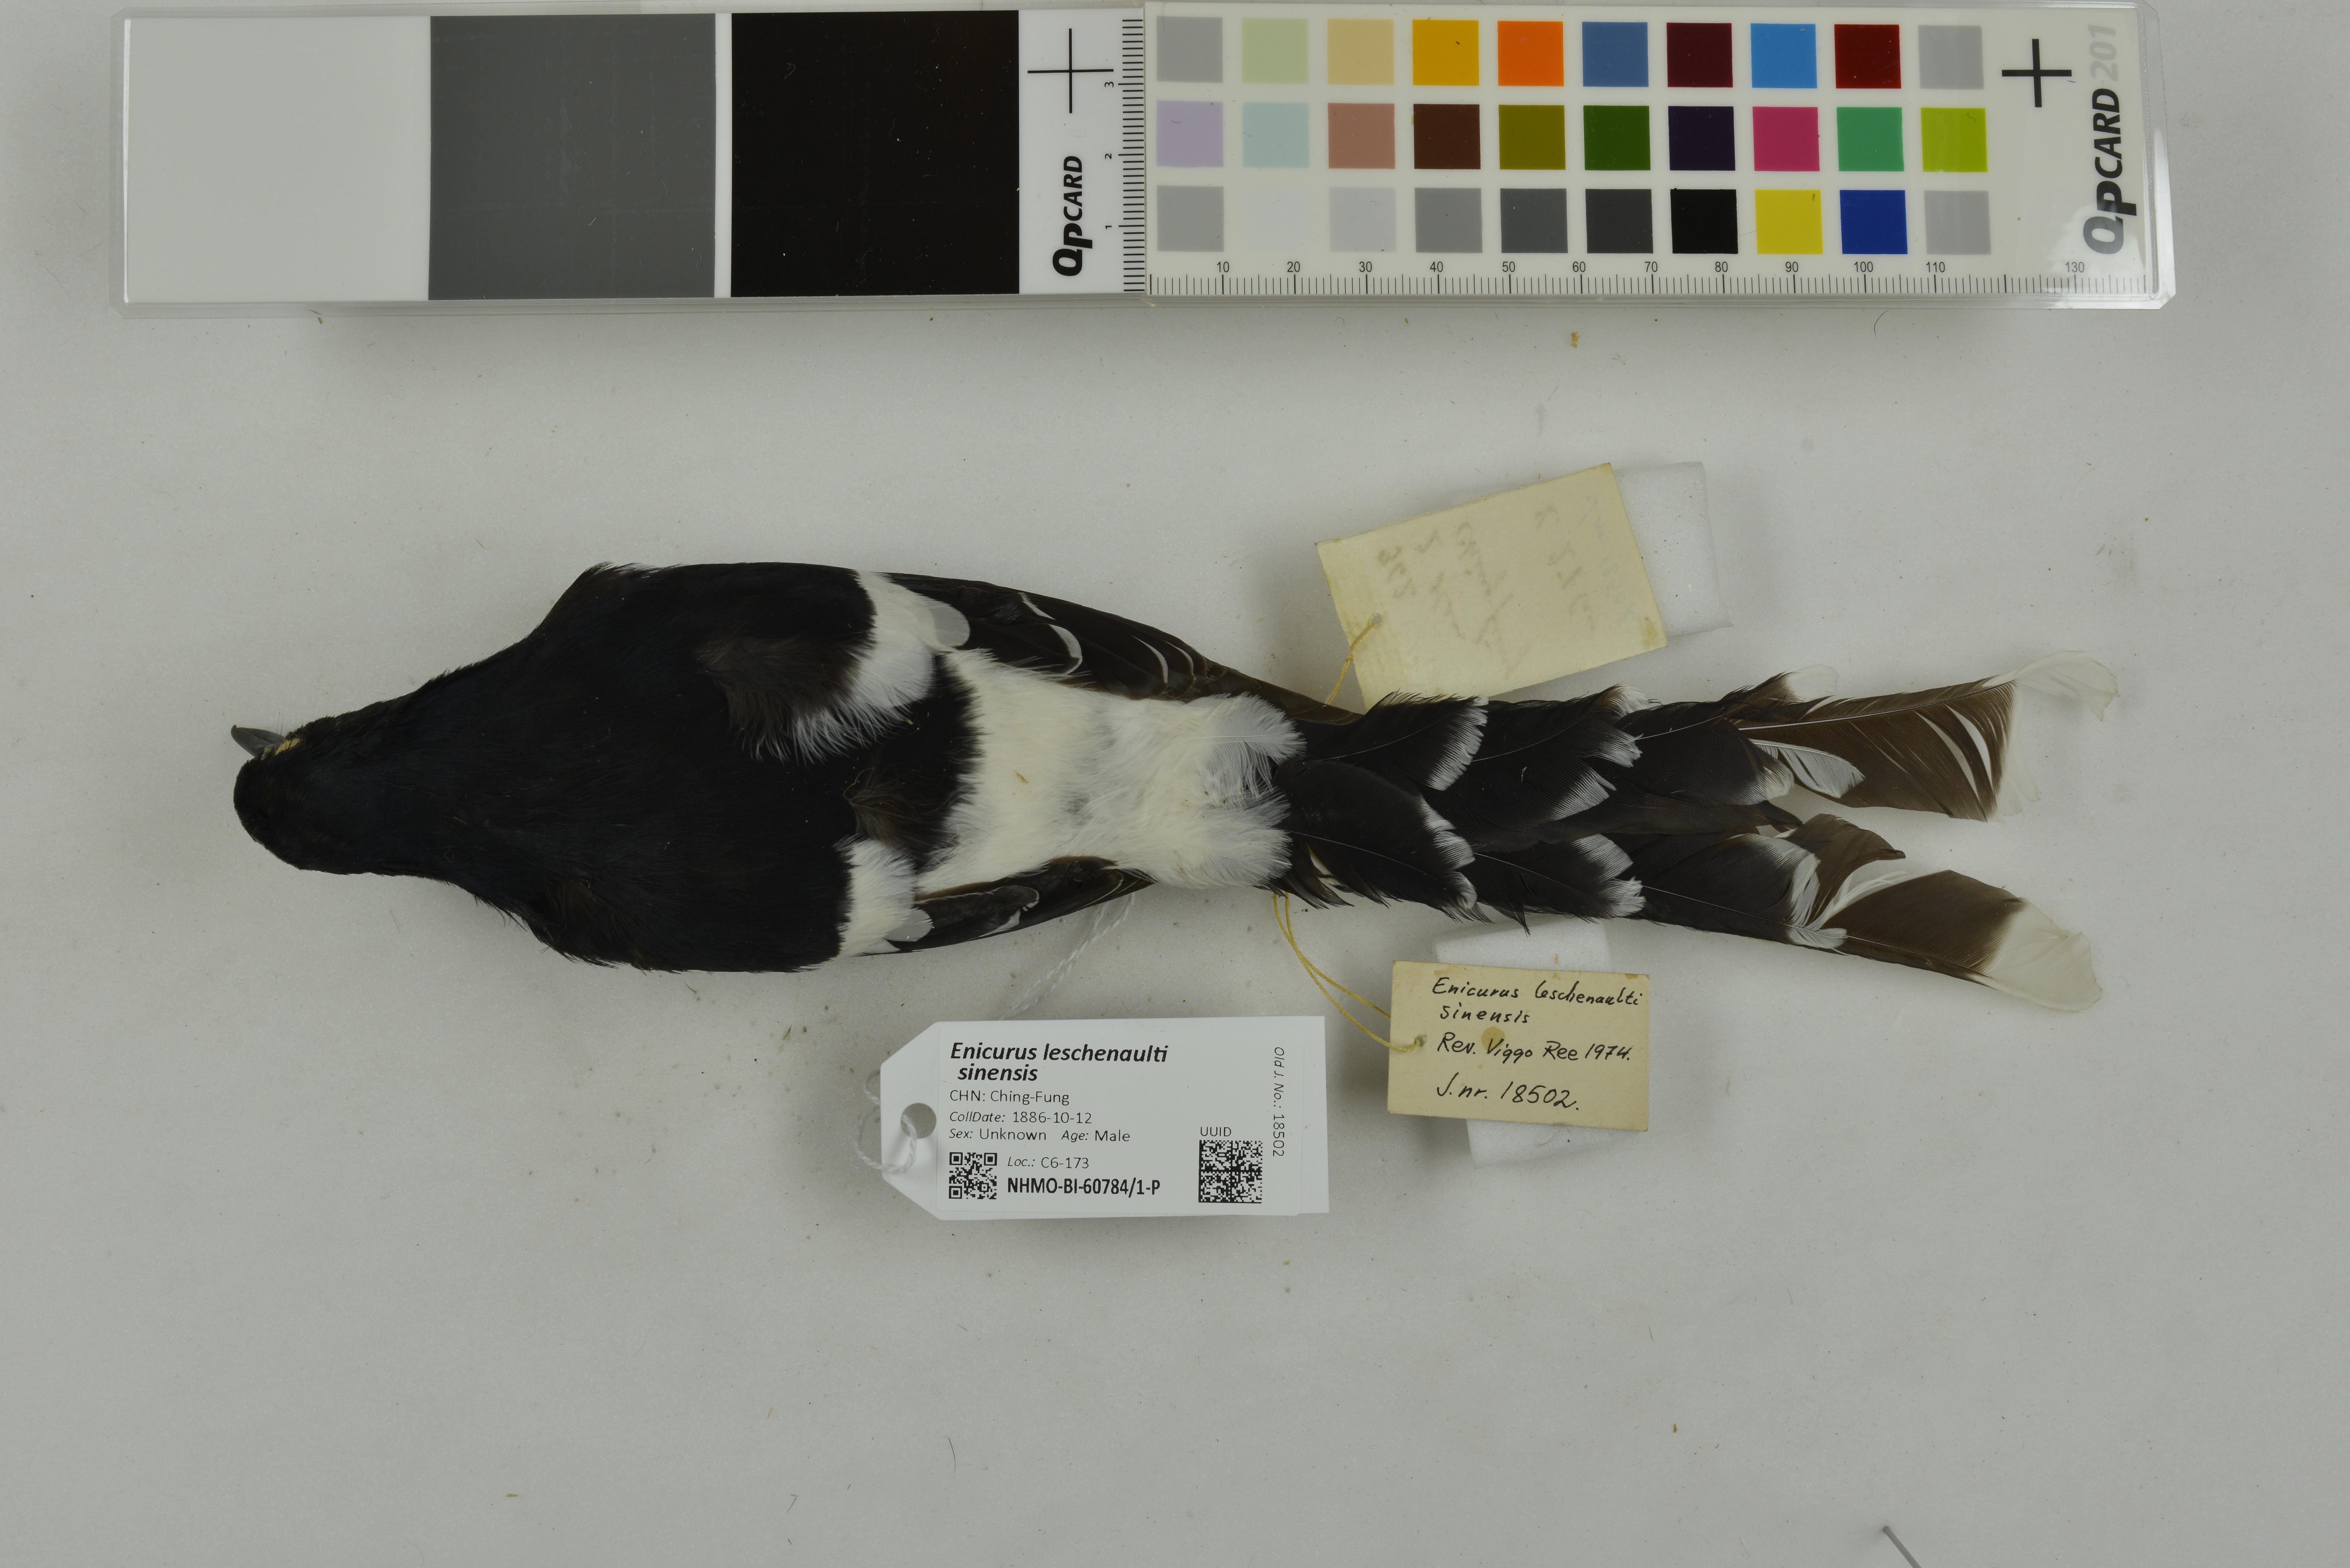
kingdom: Animalia
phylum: Chordata
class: Aves
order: Passeriformes
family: Muscicapidae
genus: Enicurus
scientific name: Enicurus leschenaulti
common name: White-crowned forktail
